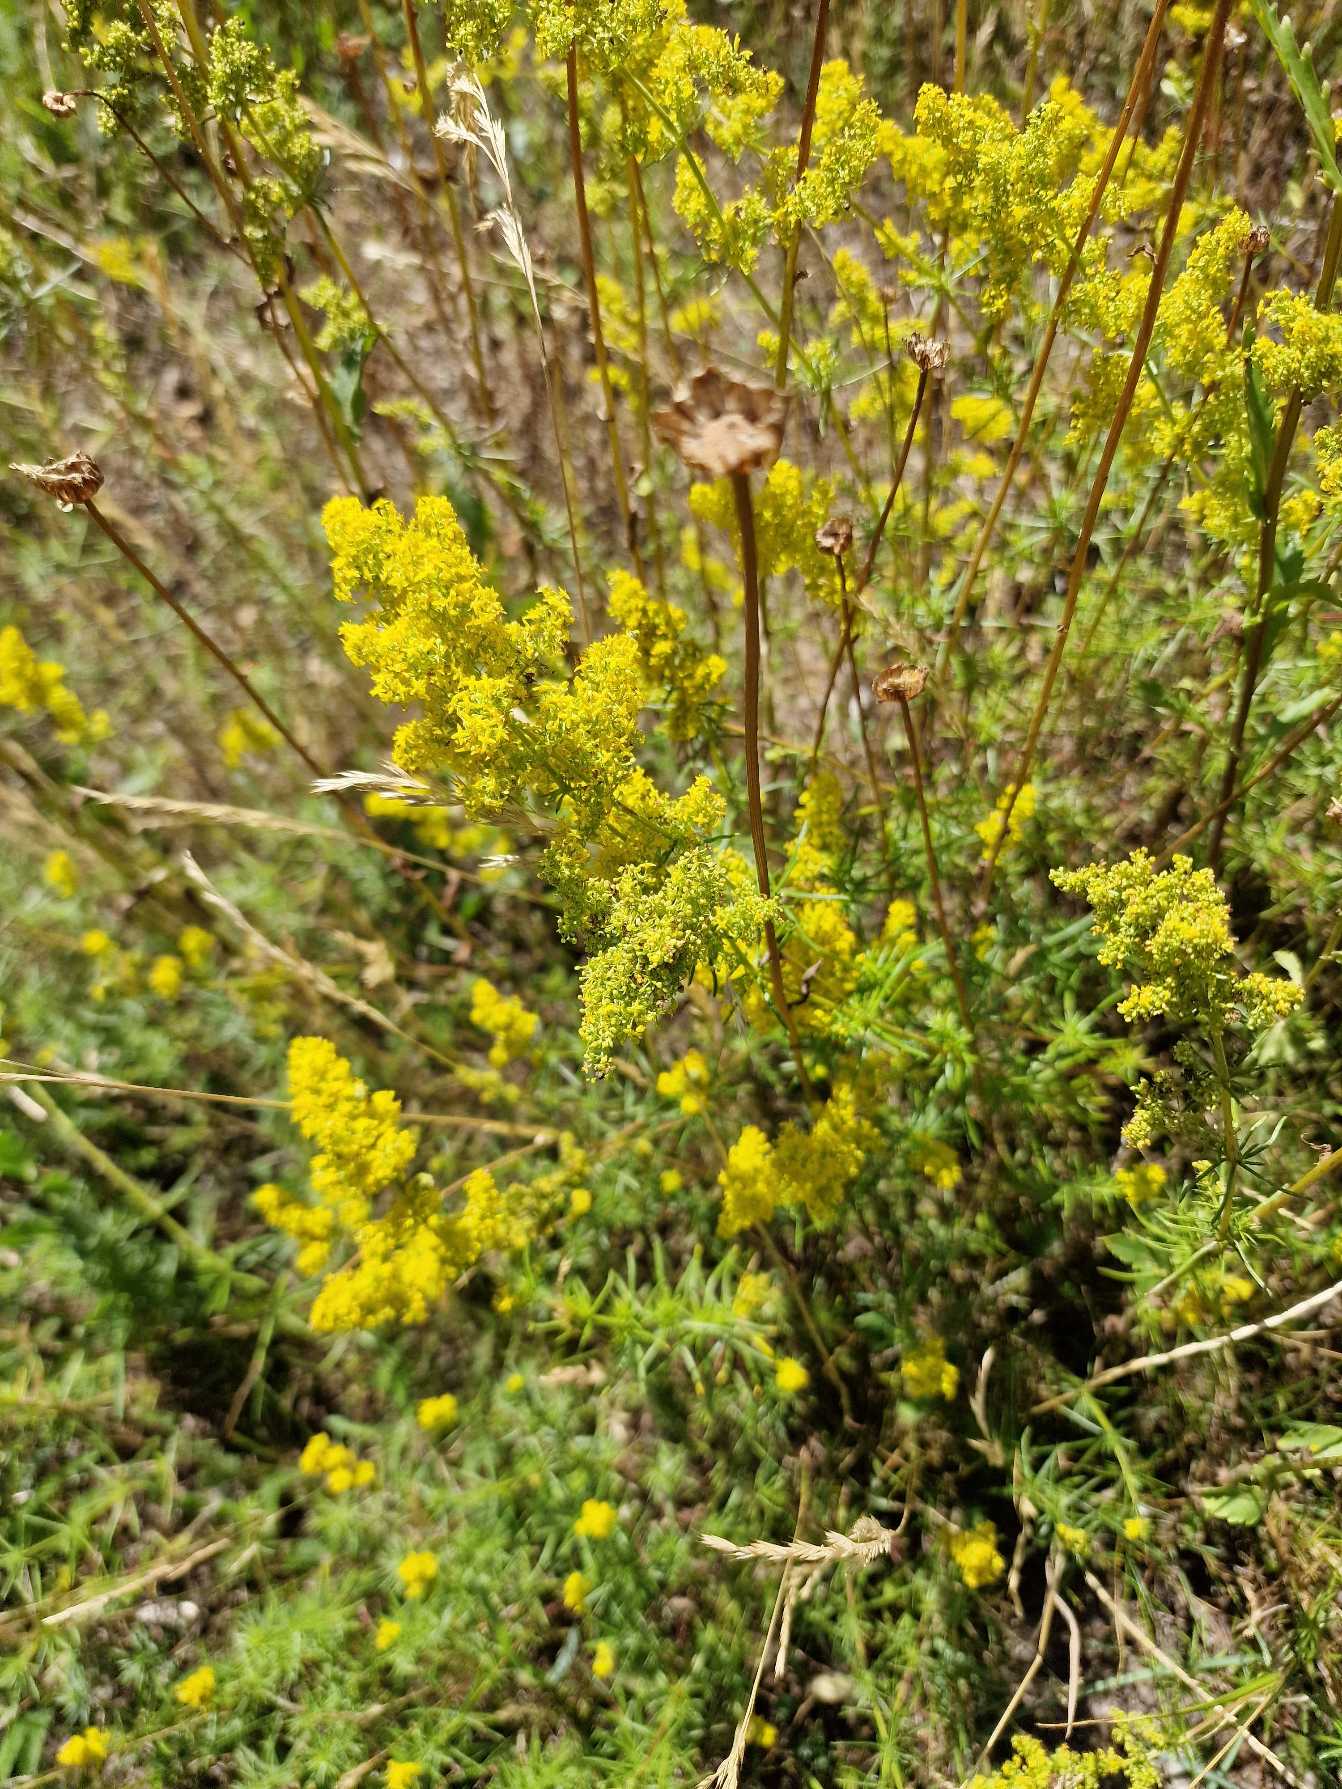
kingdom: Plantae
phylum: Tracheophyta
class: Magnoliopsida
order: Gentianales
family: Rubiaceae
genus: Galium
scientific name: Galium verum
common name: Gul snerre
